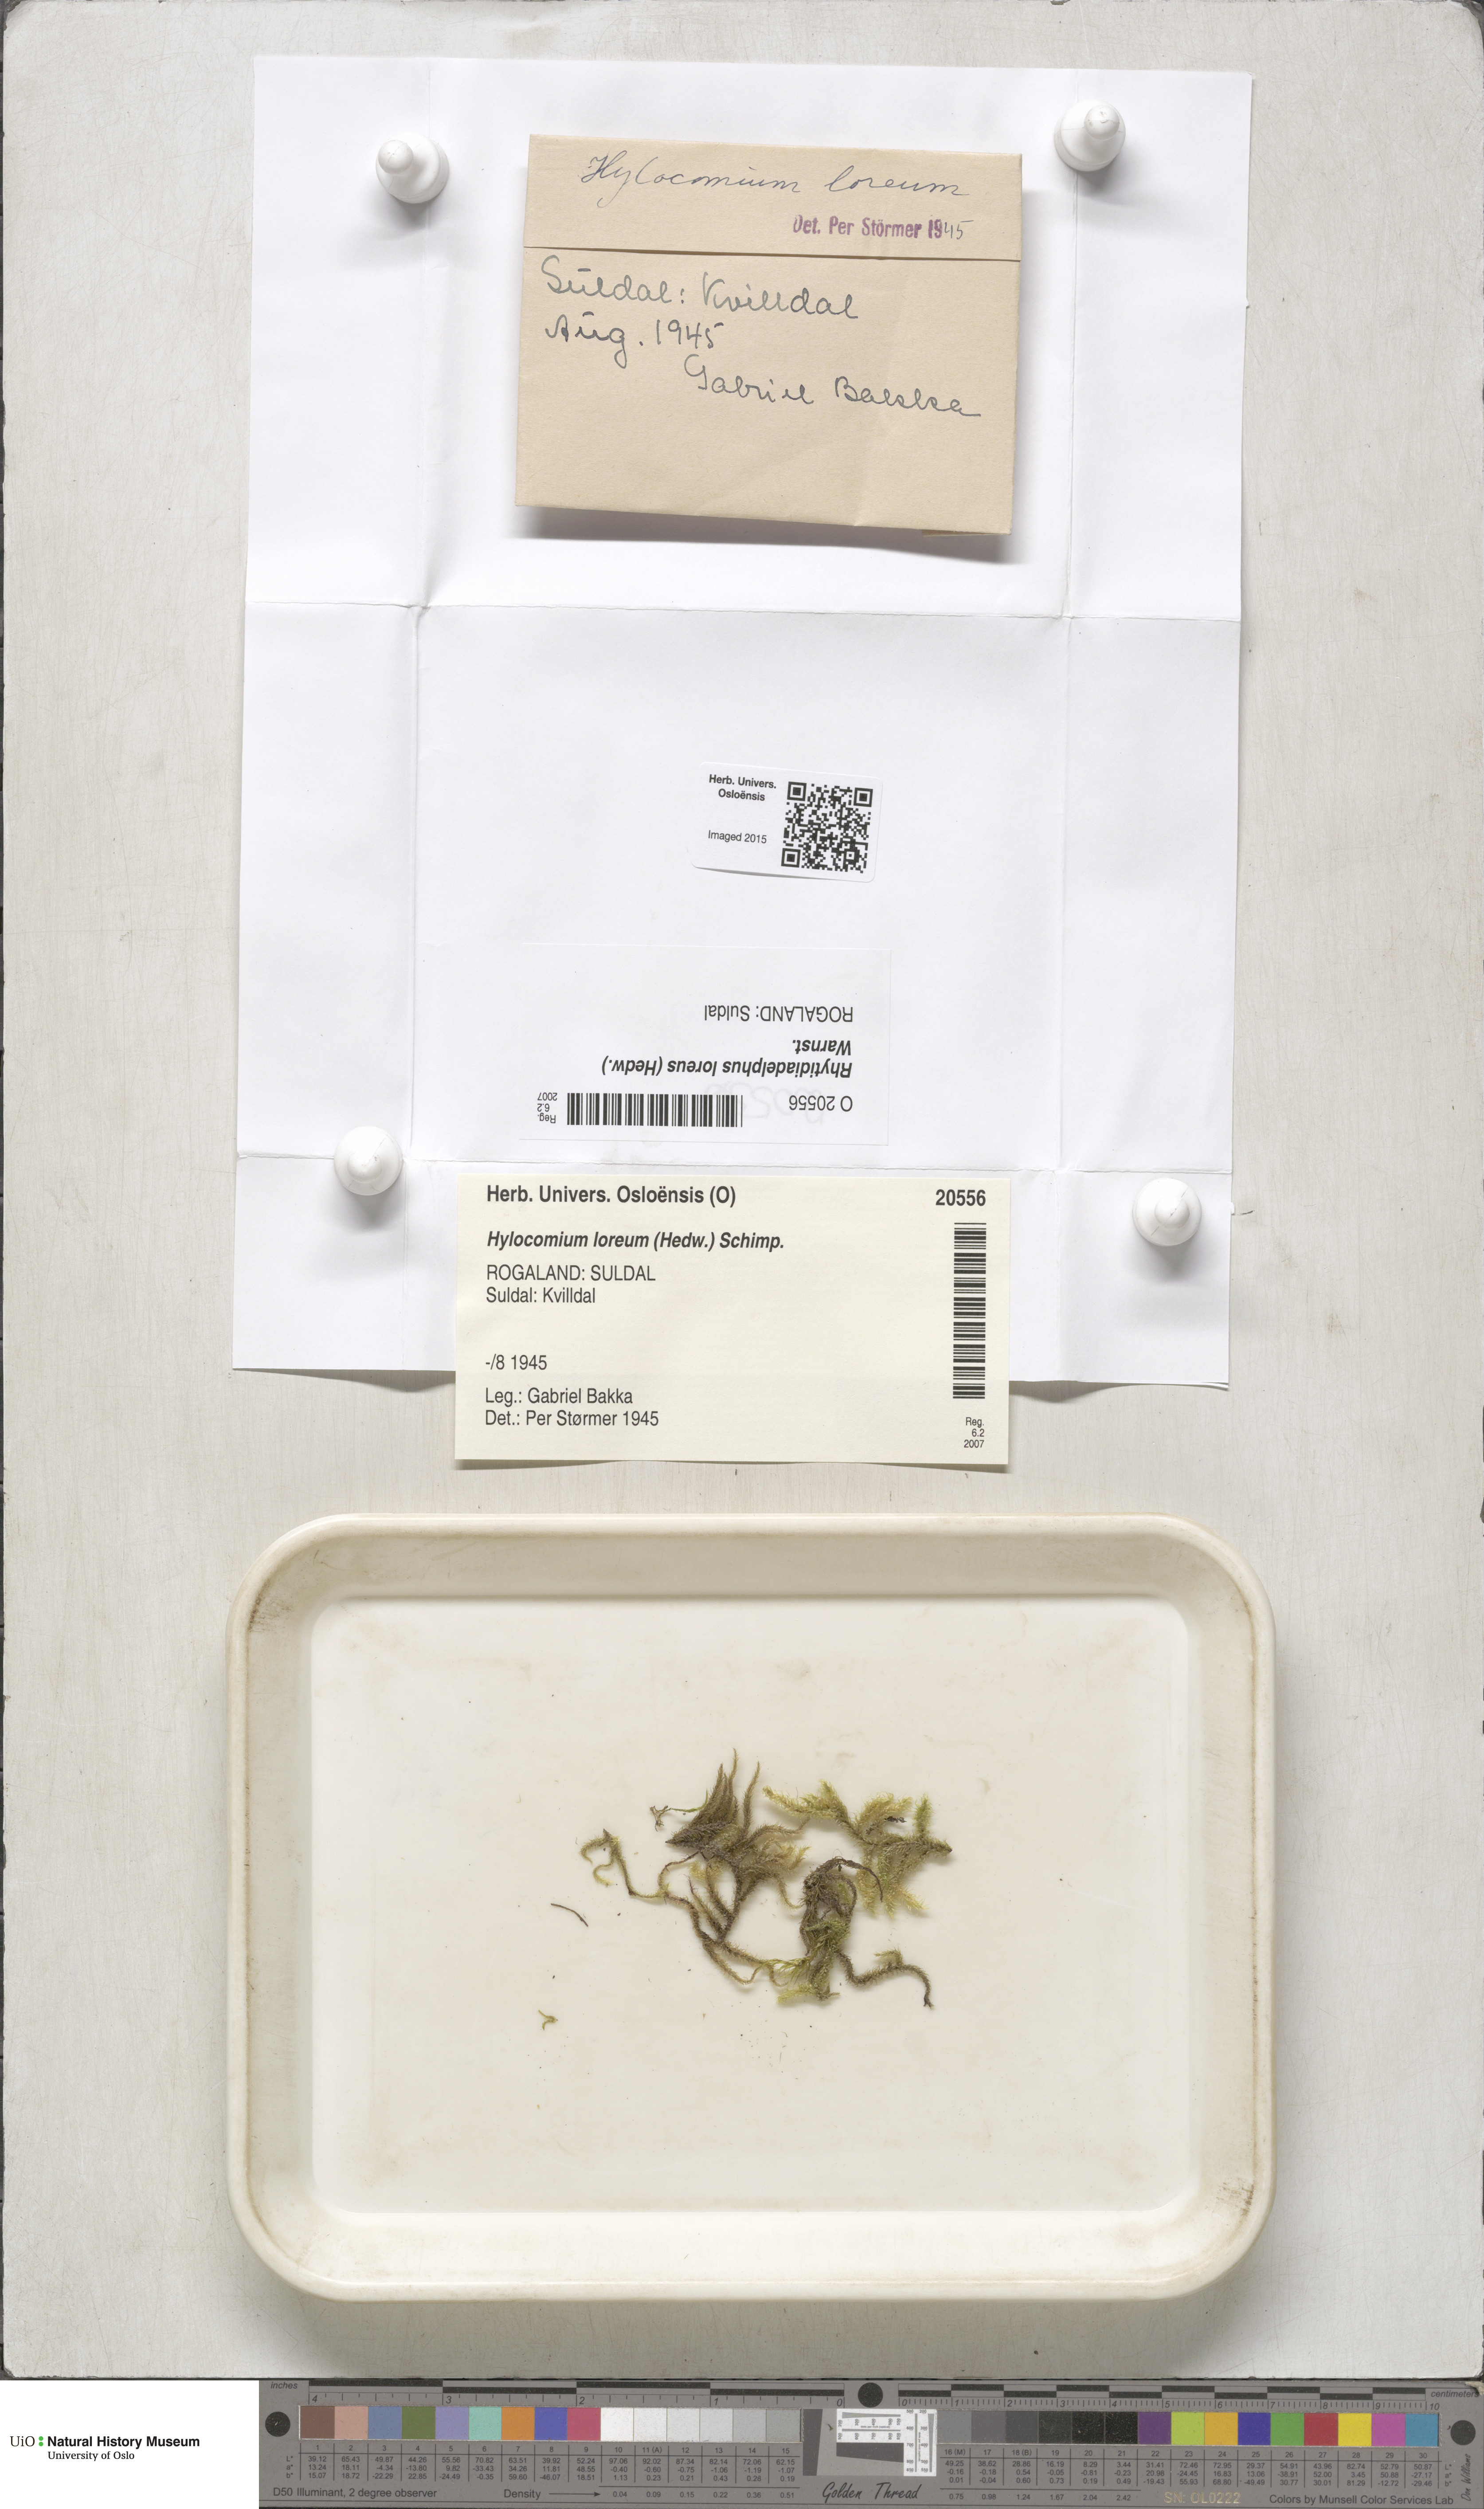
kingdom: Plantae
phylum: Bryophyta
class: Bryopsida
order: Hypnales
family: Hylocomiaceae
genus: Rhytidiadelphus
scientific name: Rhytidiadelphus loreus
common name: Lanky moss
